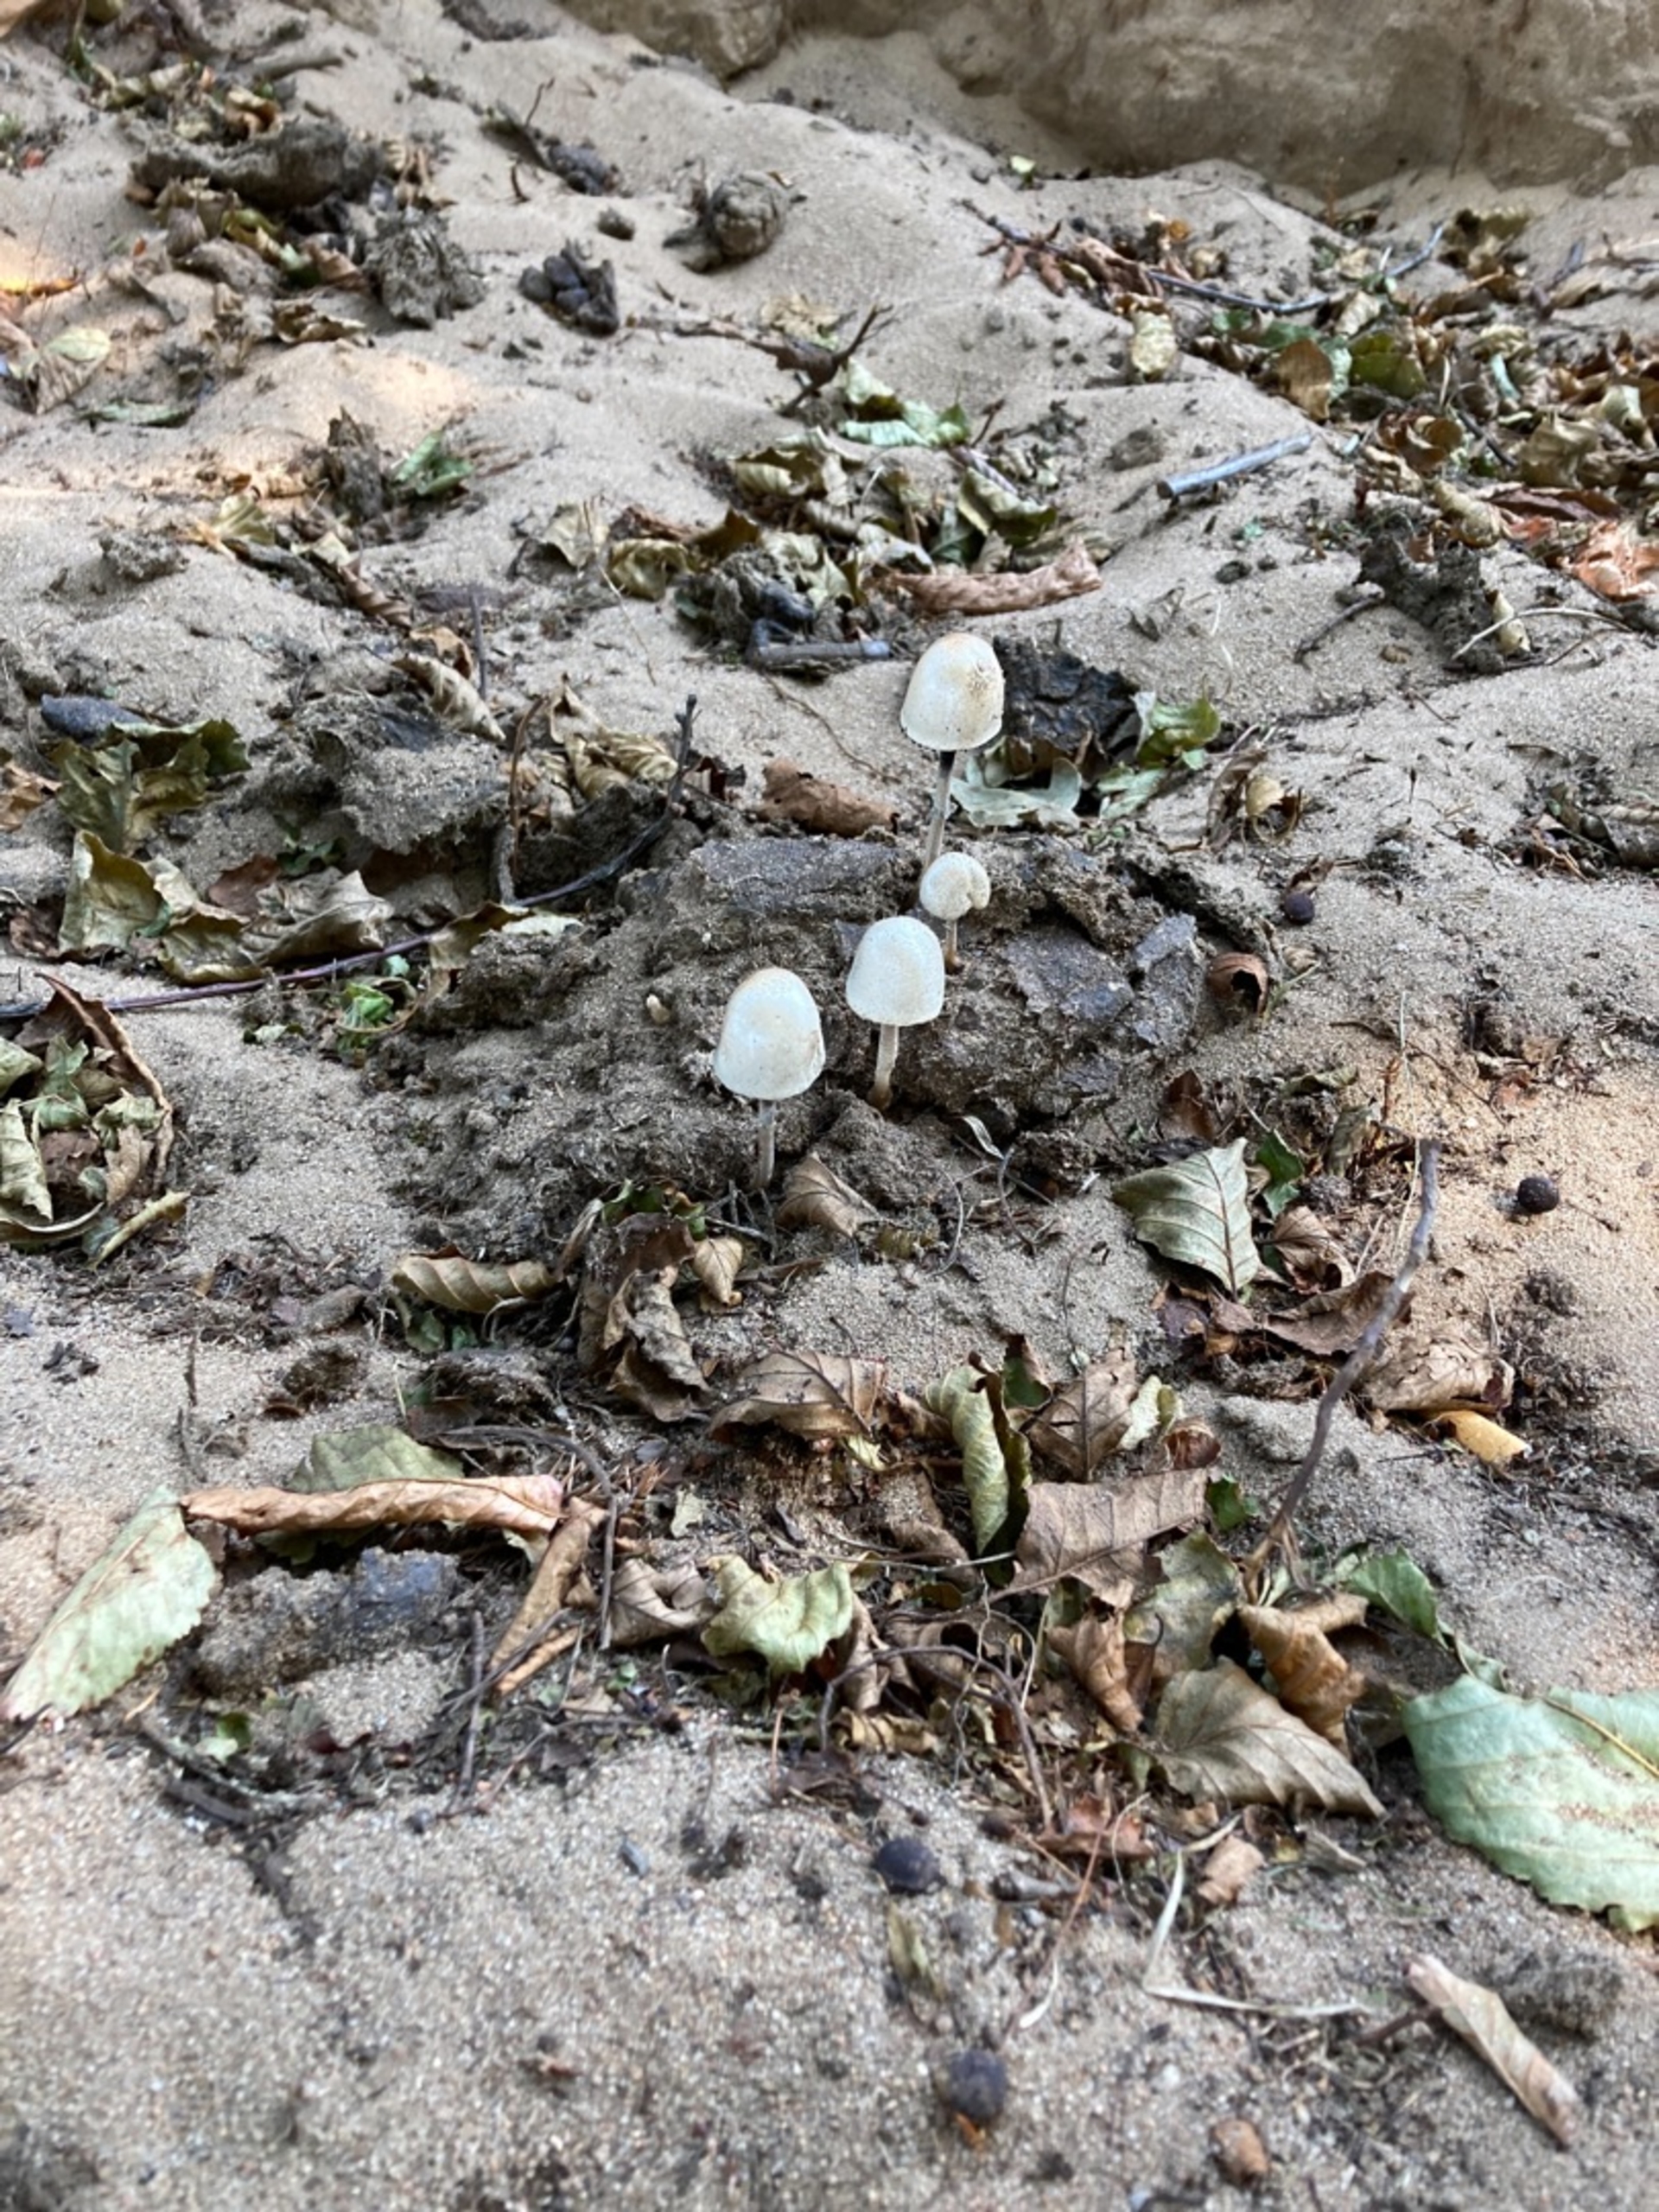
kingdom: Fungi
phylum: Basidiomycota
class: Agaricomycetes
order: Agaricales
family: Bolbitiaceae
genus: Panaeolus
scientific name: Panaeolus semiovatus
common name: Ring-glanshat
